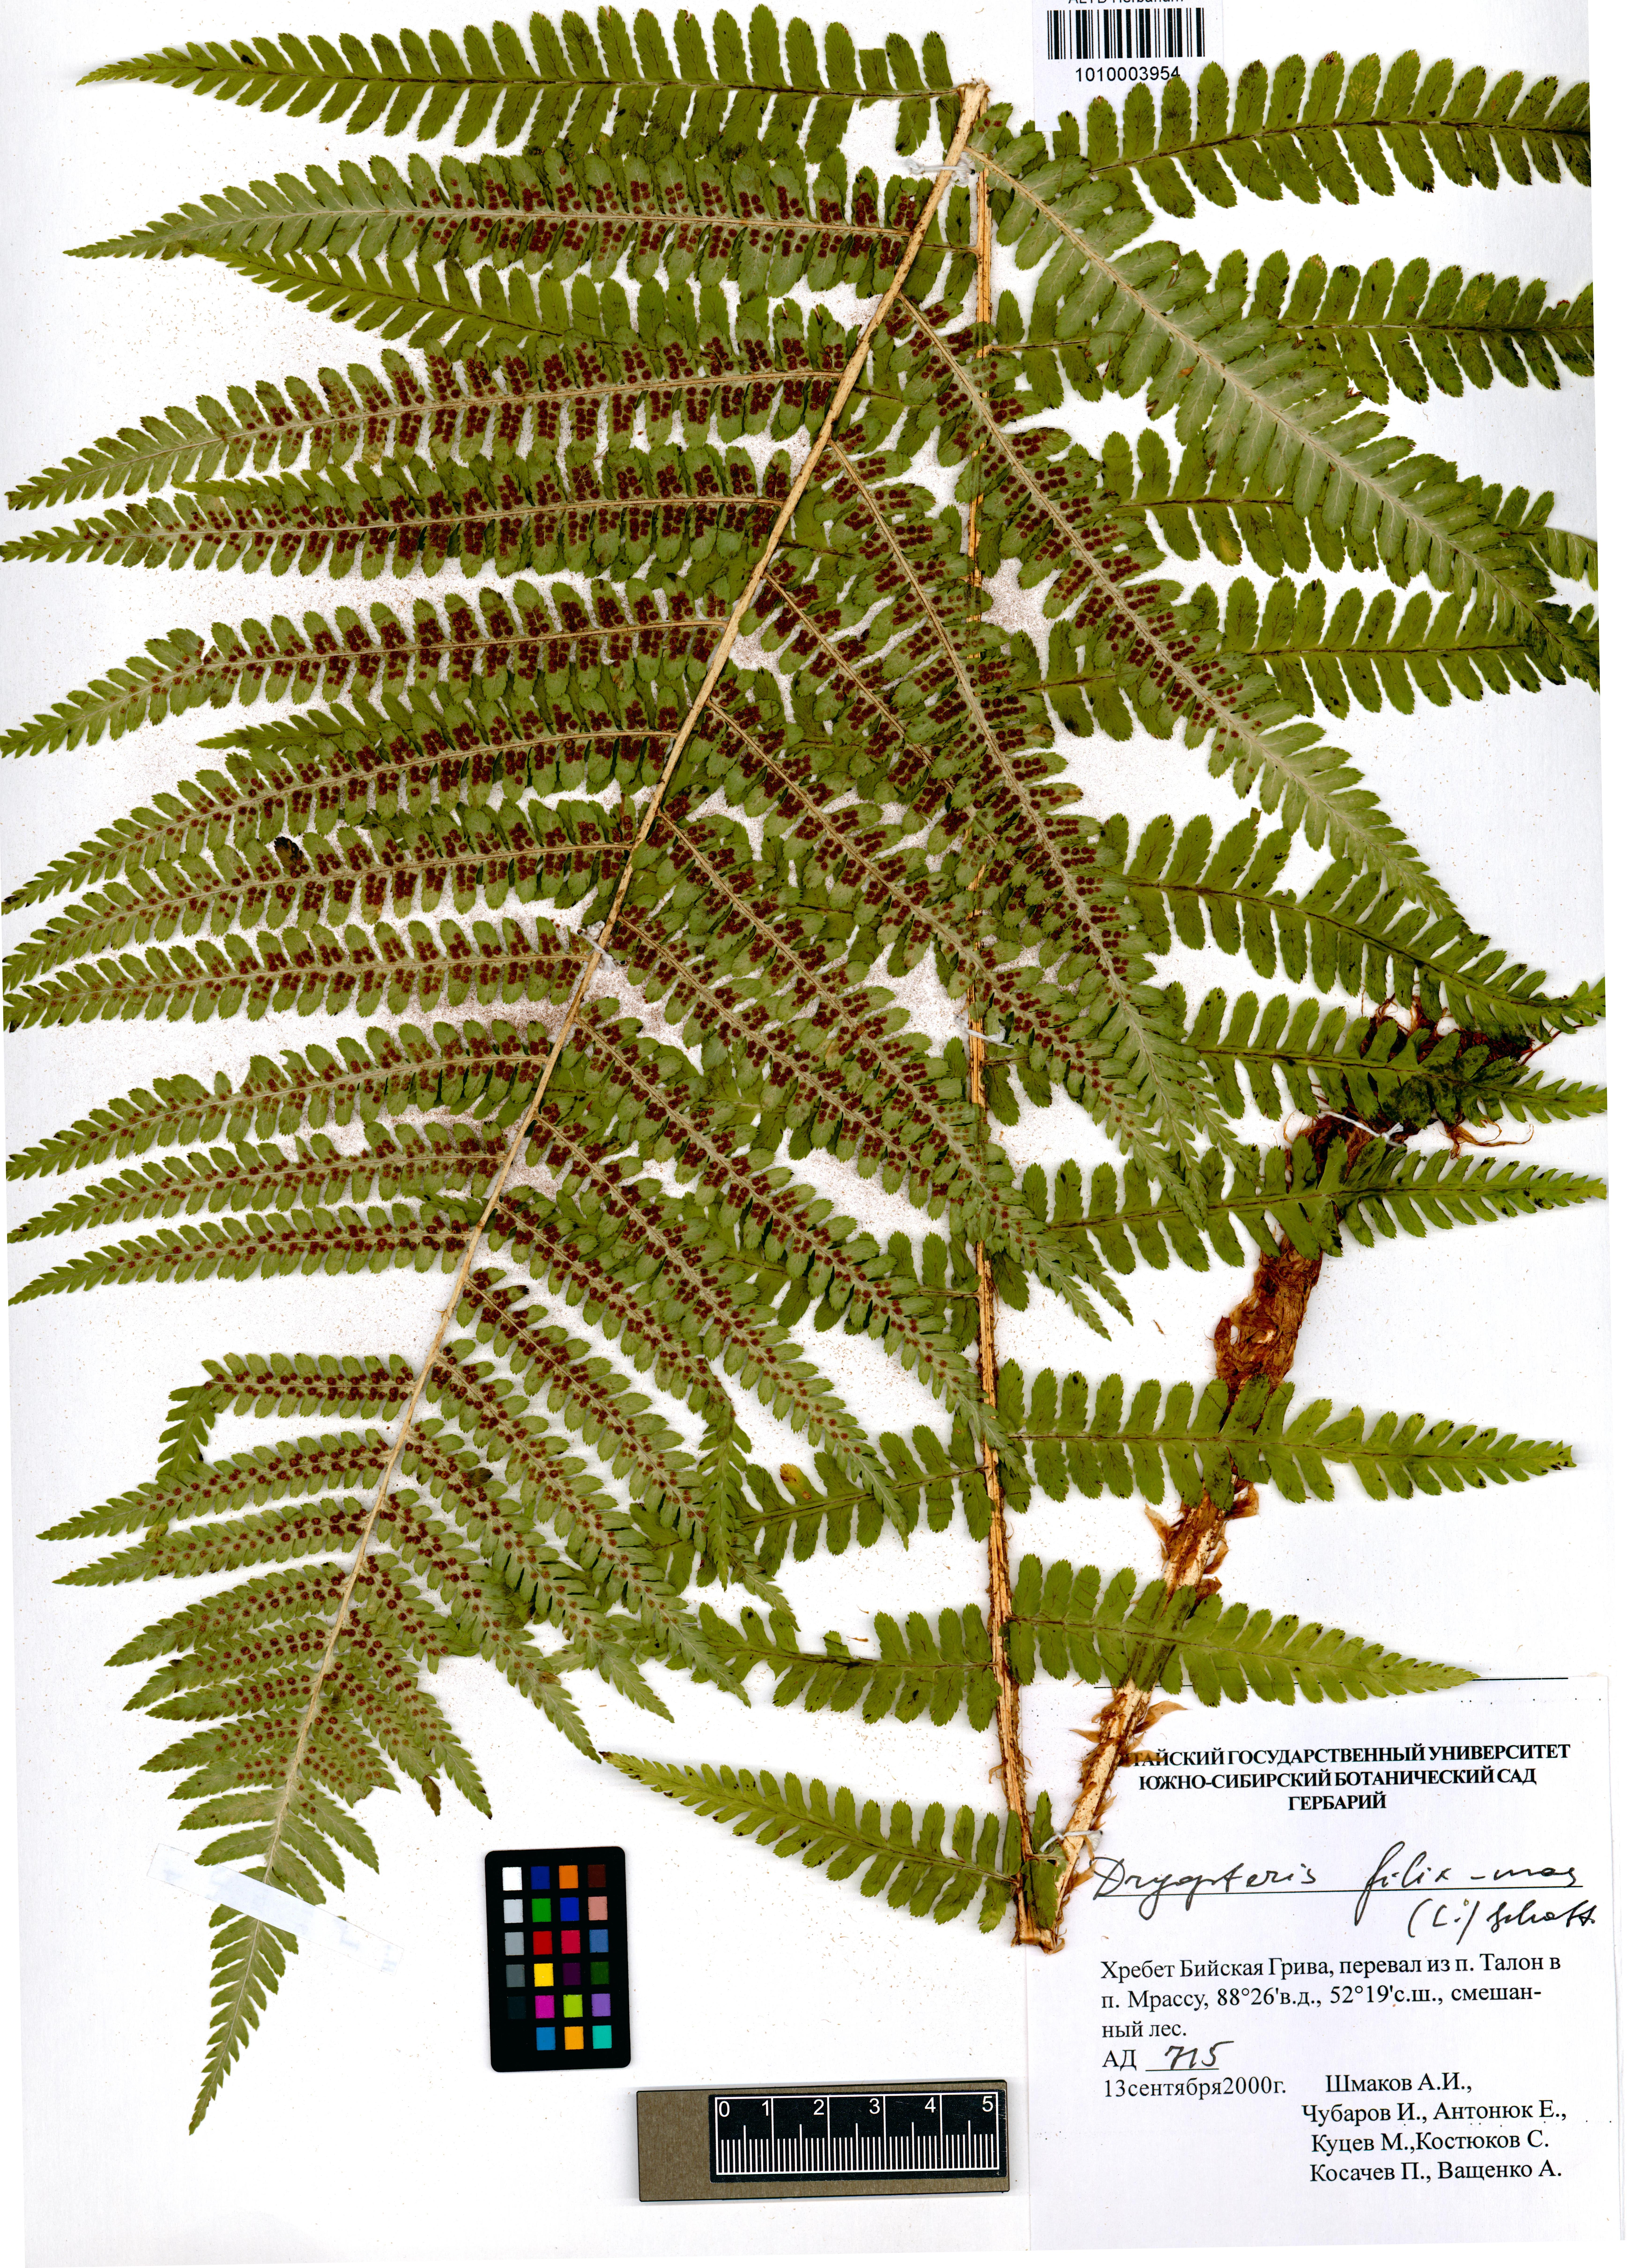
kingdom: Plantae
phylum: Tracheophyta
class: Polypodiopsida
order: Polypodiales
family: Dryopteridaceae
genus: Dryopteris
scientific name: Dryopteris filix-mas
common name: Male fern
